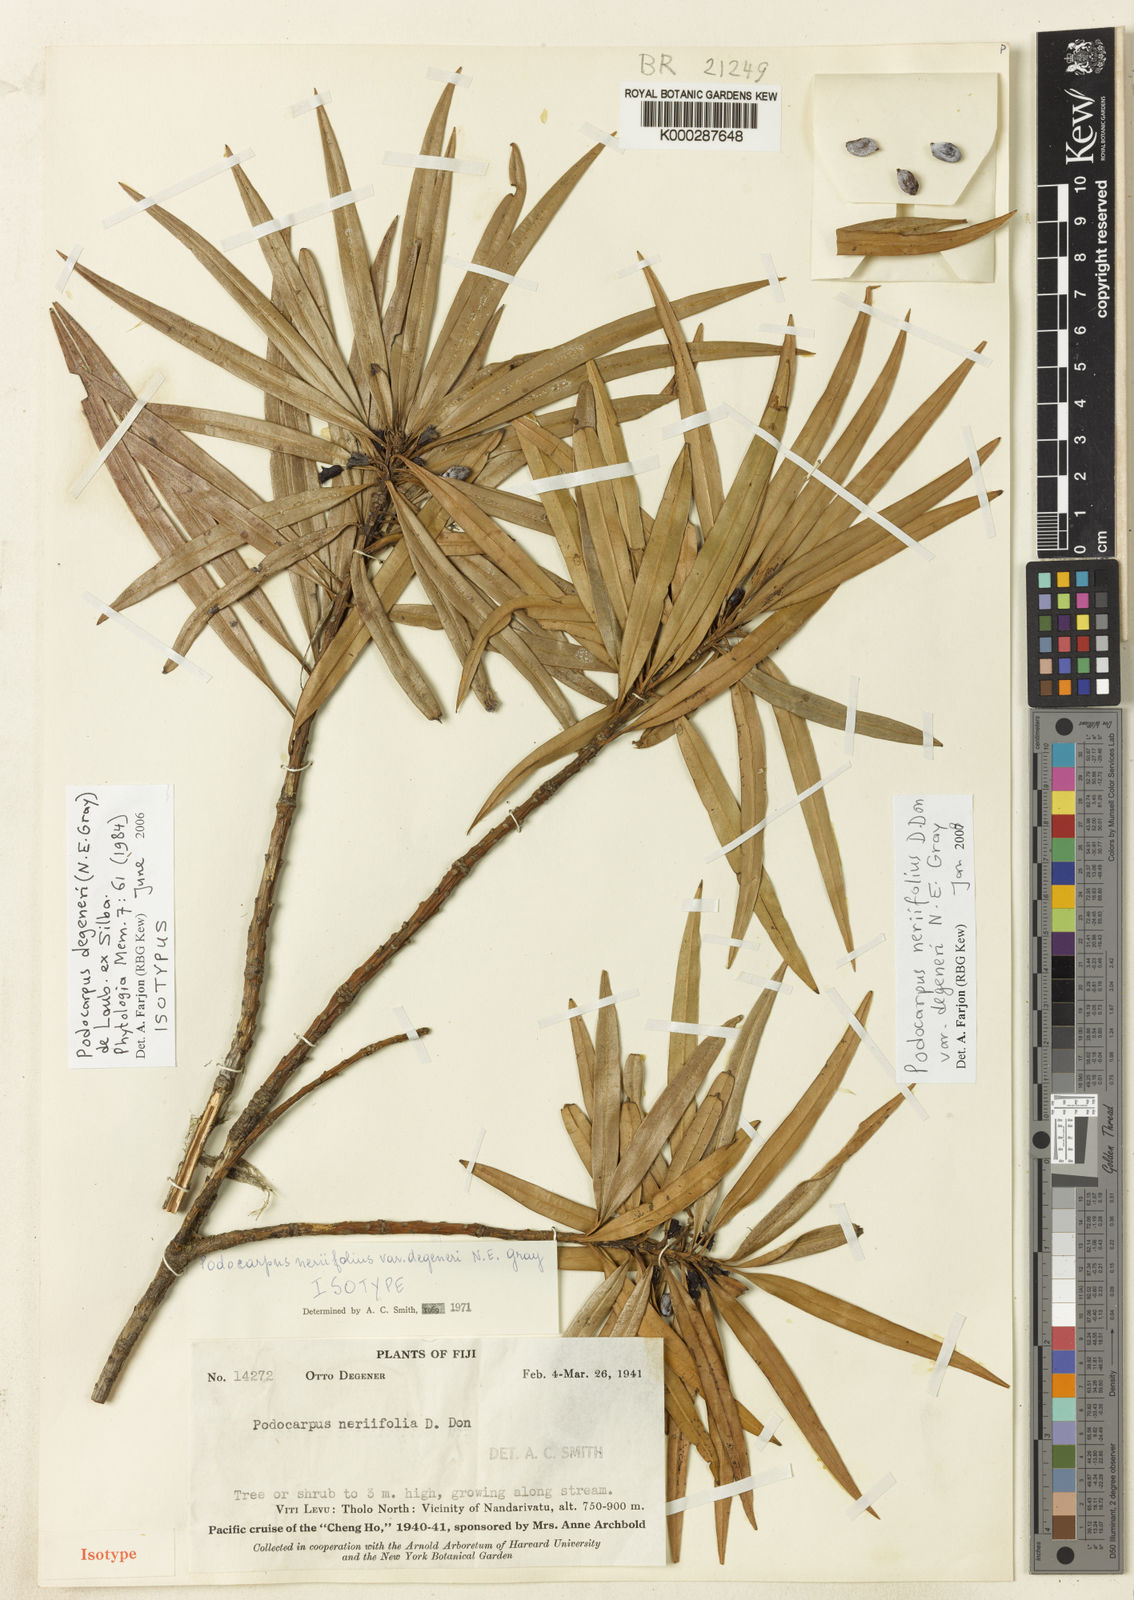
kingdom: Plantae
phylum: Tracheophyta
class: Pinopsida
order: Pinales
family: Podocarpaceae
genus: Podocarpus
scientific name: Podocarpus
